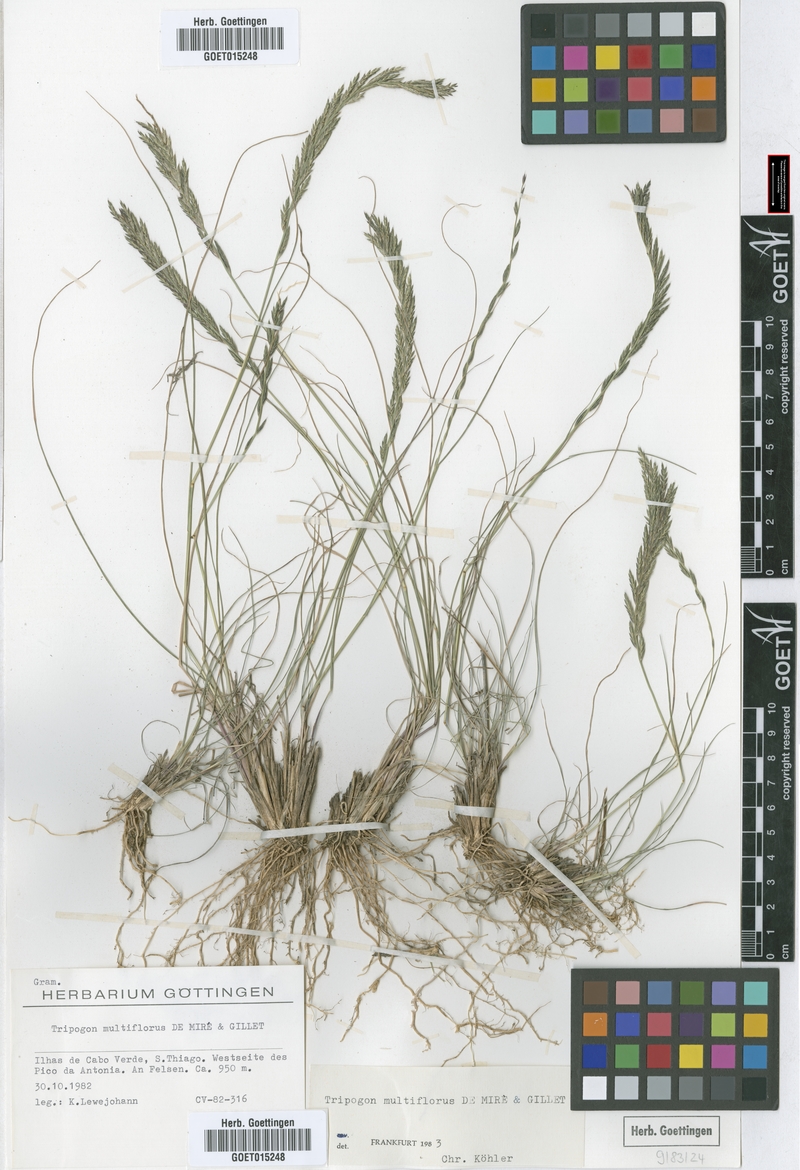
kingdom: Plantae
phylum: Tracheophyta
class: Liliopsida
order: Poales
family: Poaceae
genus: Tripogon
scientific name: Tripogon multiflorus
